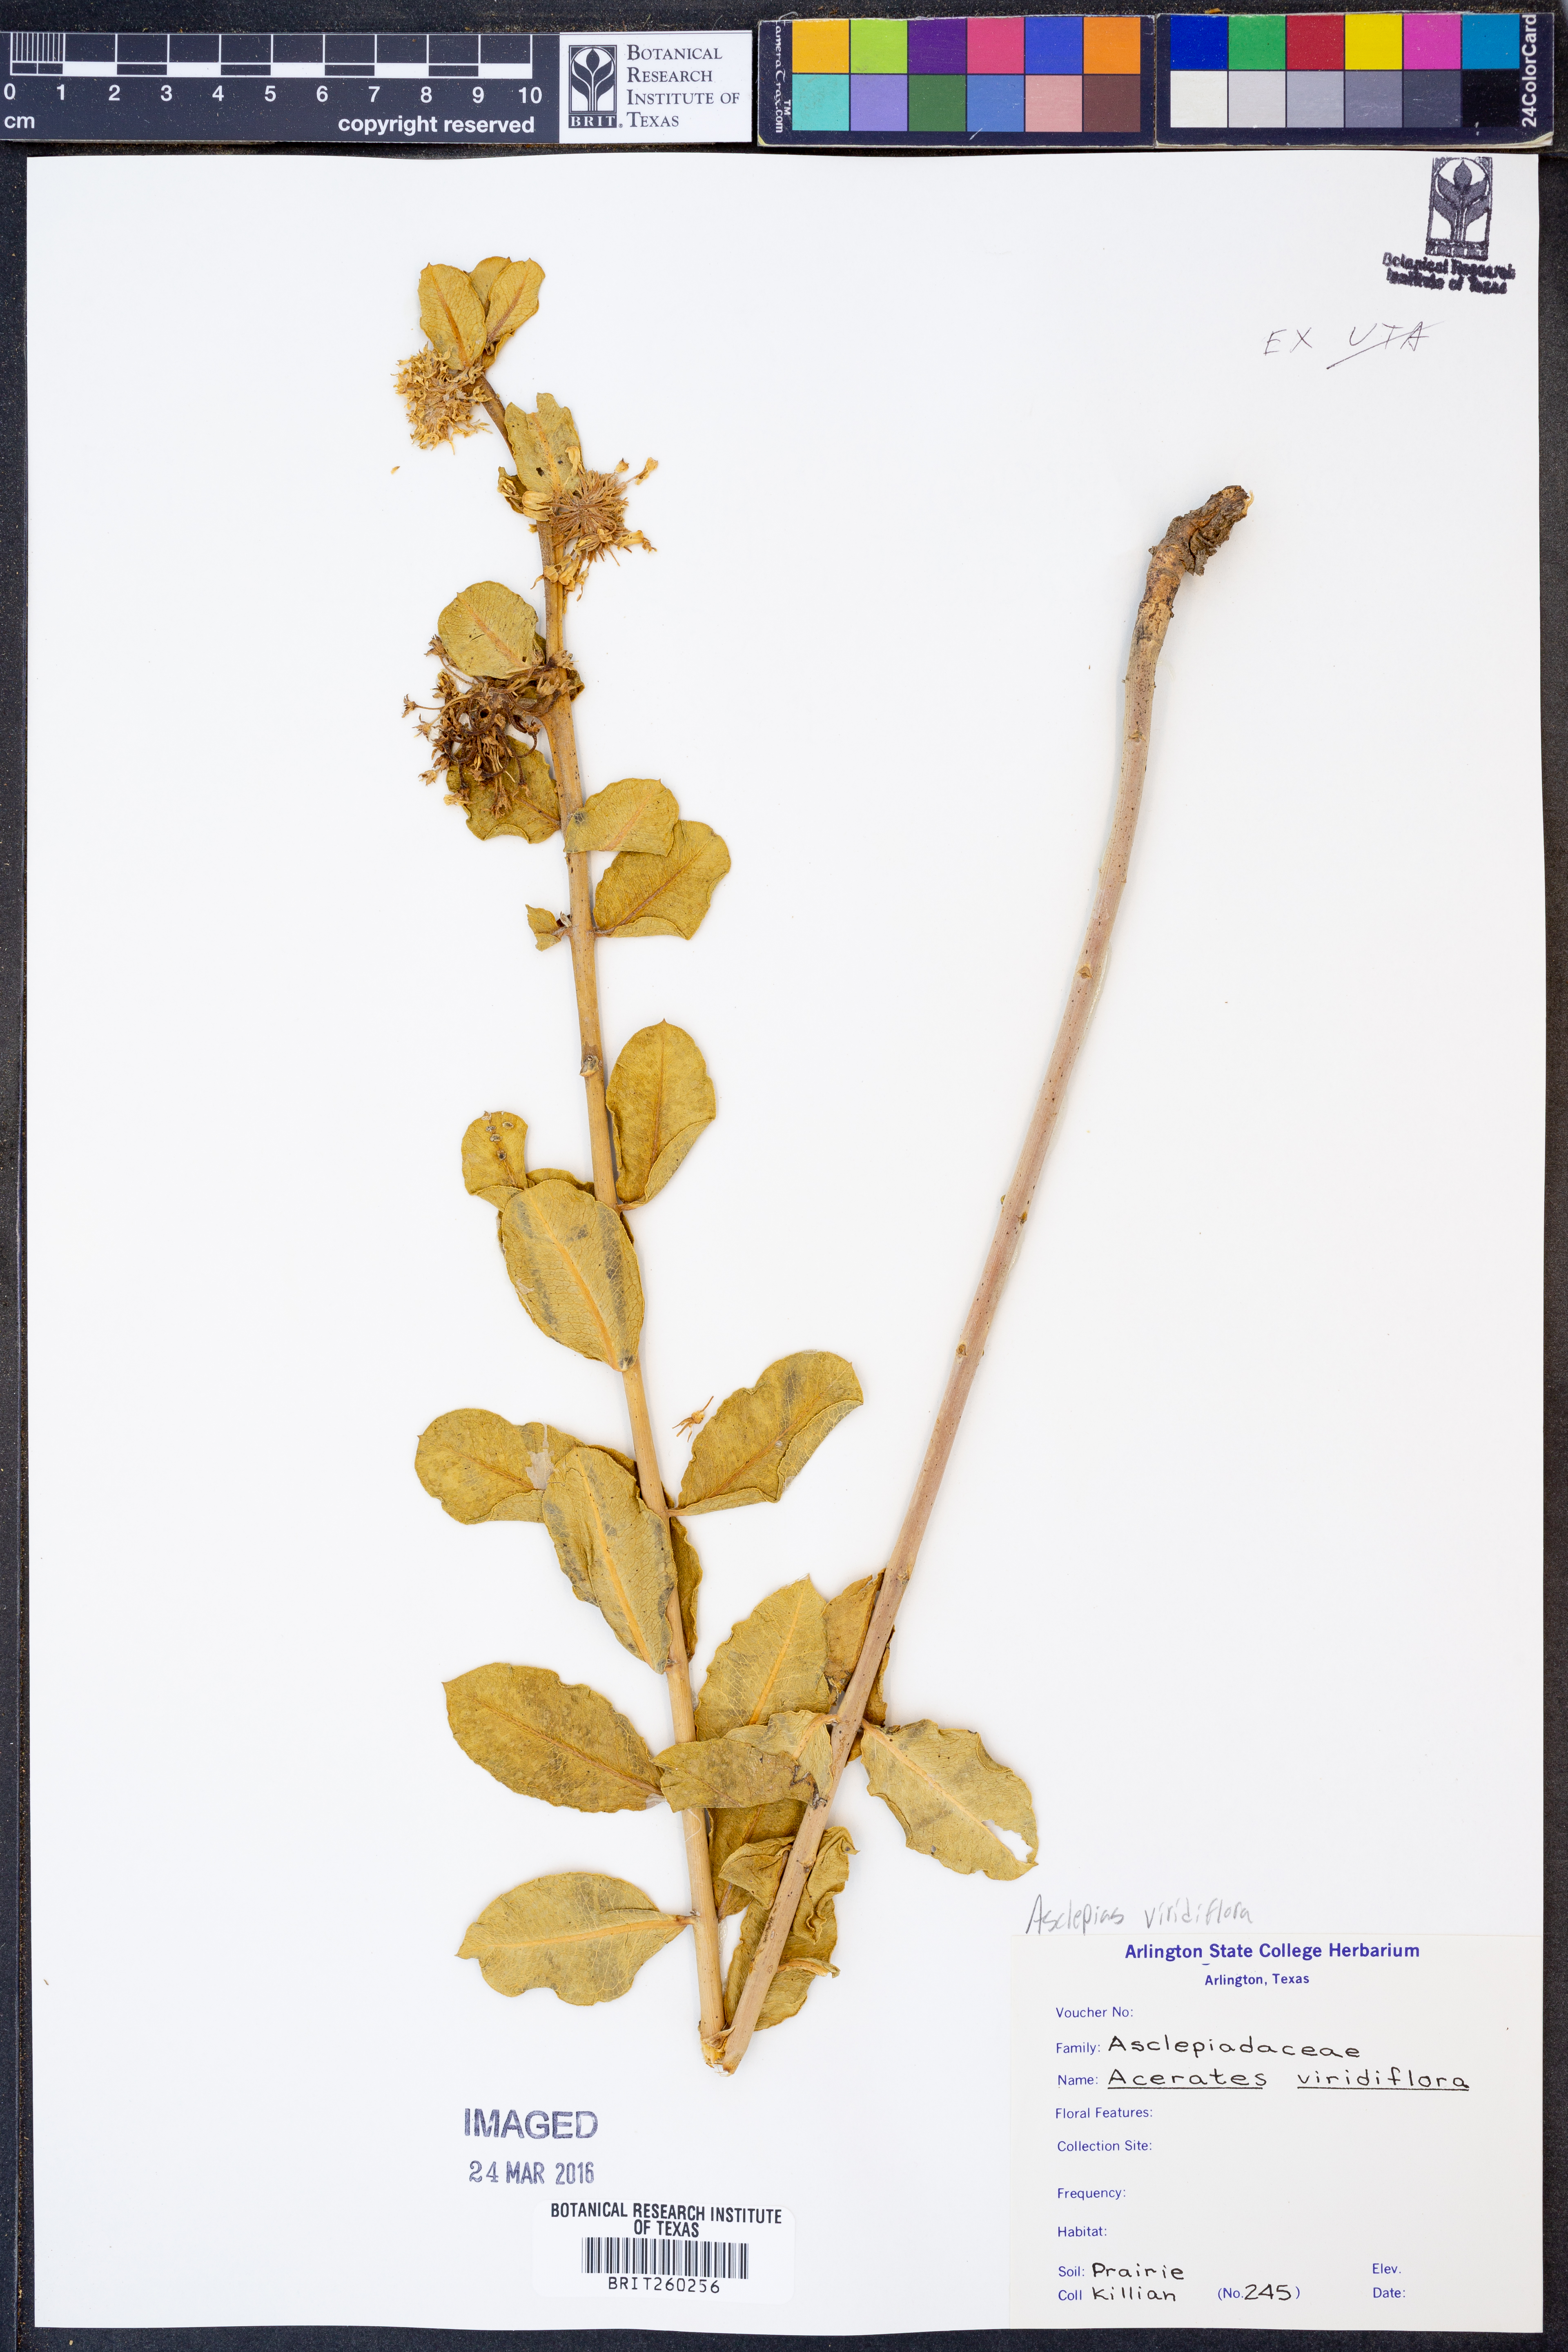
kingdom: Plantae
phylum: Tracheophyta
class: Magnoliopsida
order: Gentianales
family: Apocynaceae
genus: Asclepias
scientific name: Asclepias viridiflora
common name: Green comet milkweed
